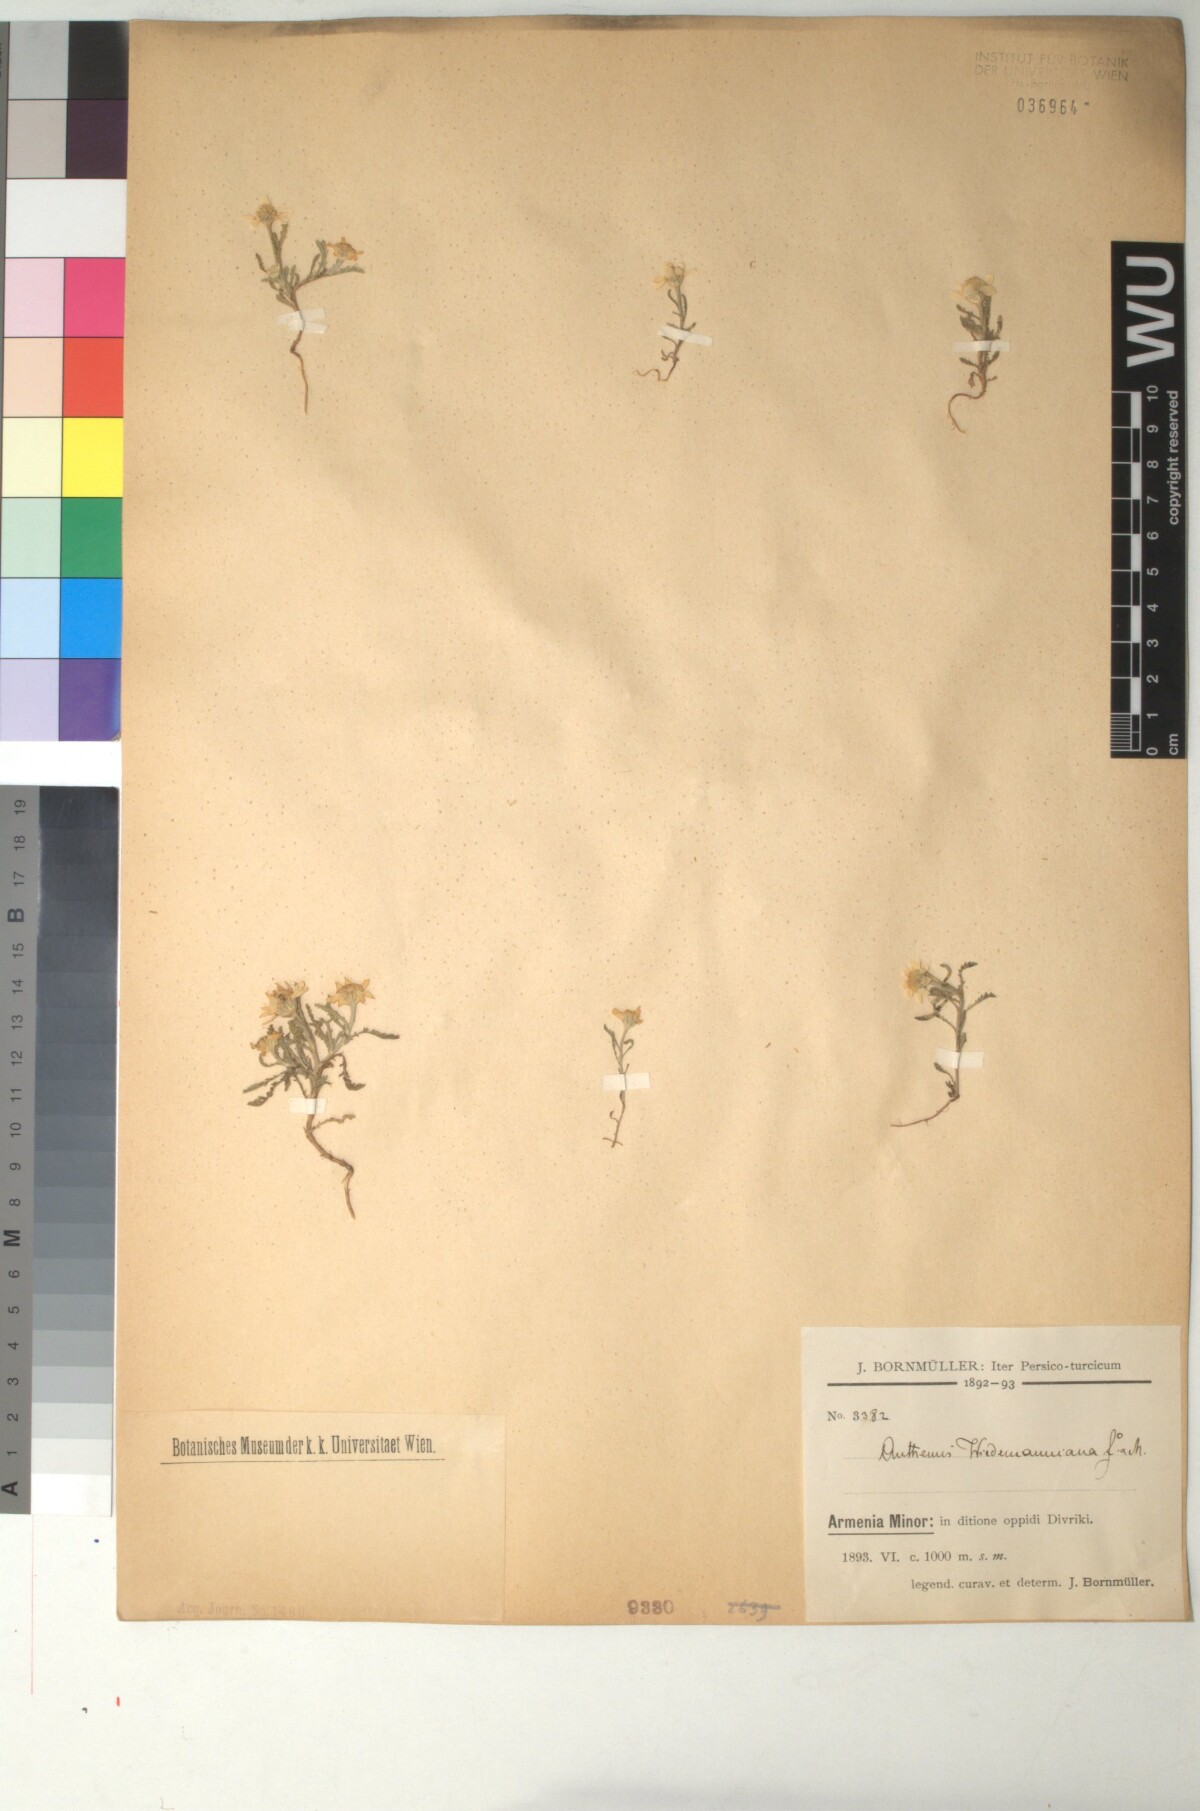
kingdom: Plantae
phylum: Tracheophyta
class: Magnoliopsida
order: Asterales
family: Asteraceae
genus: Cota
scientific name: Cota wiedemanniana
